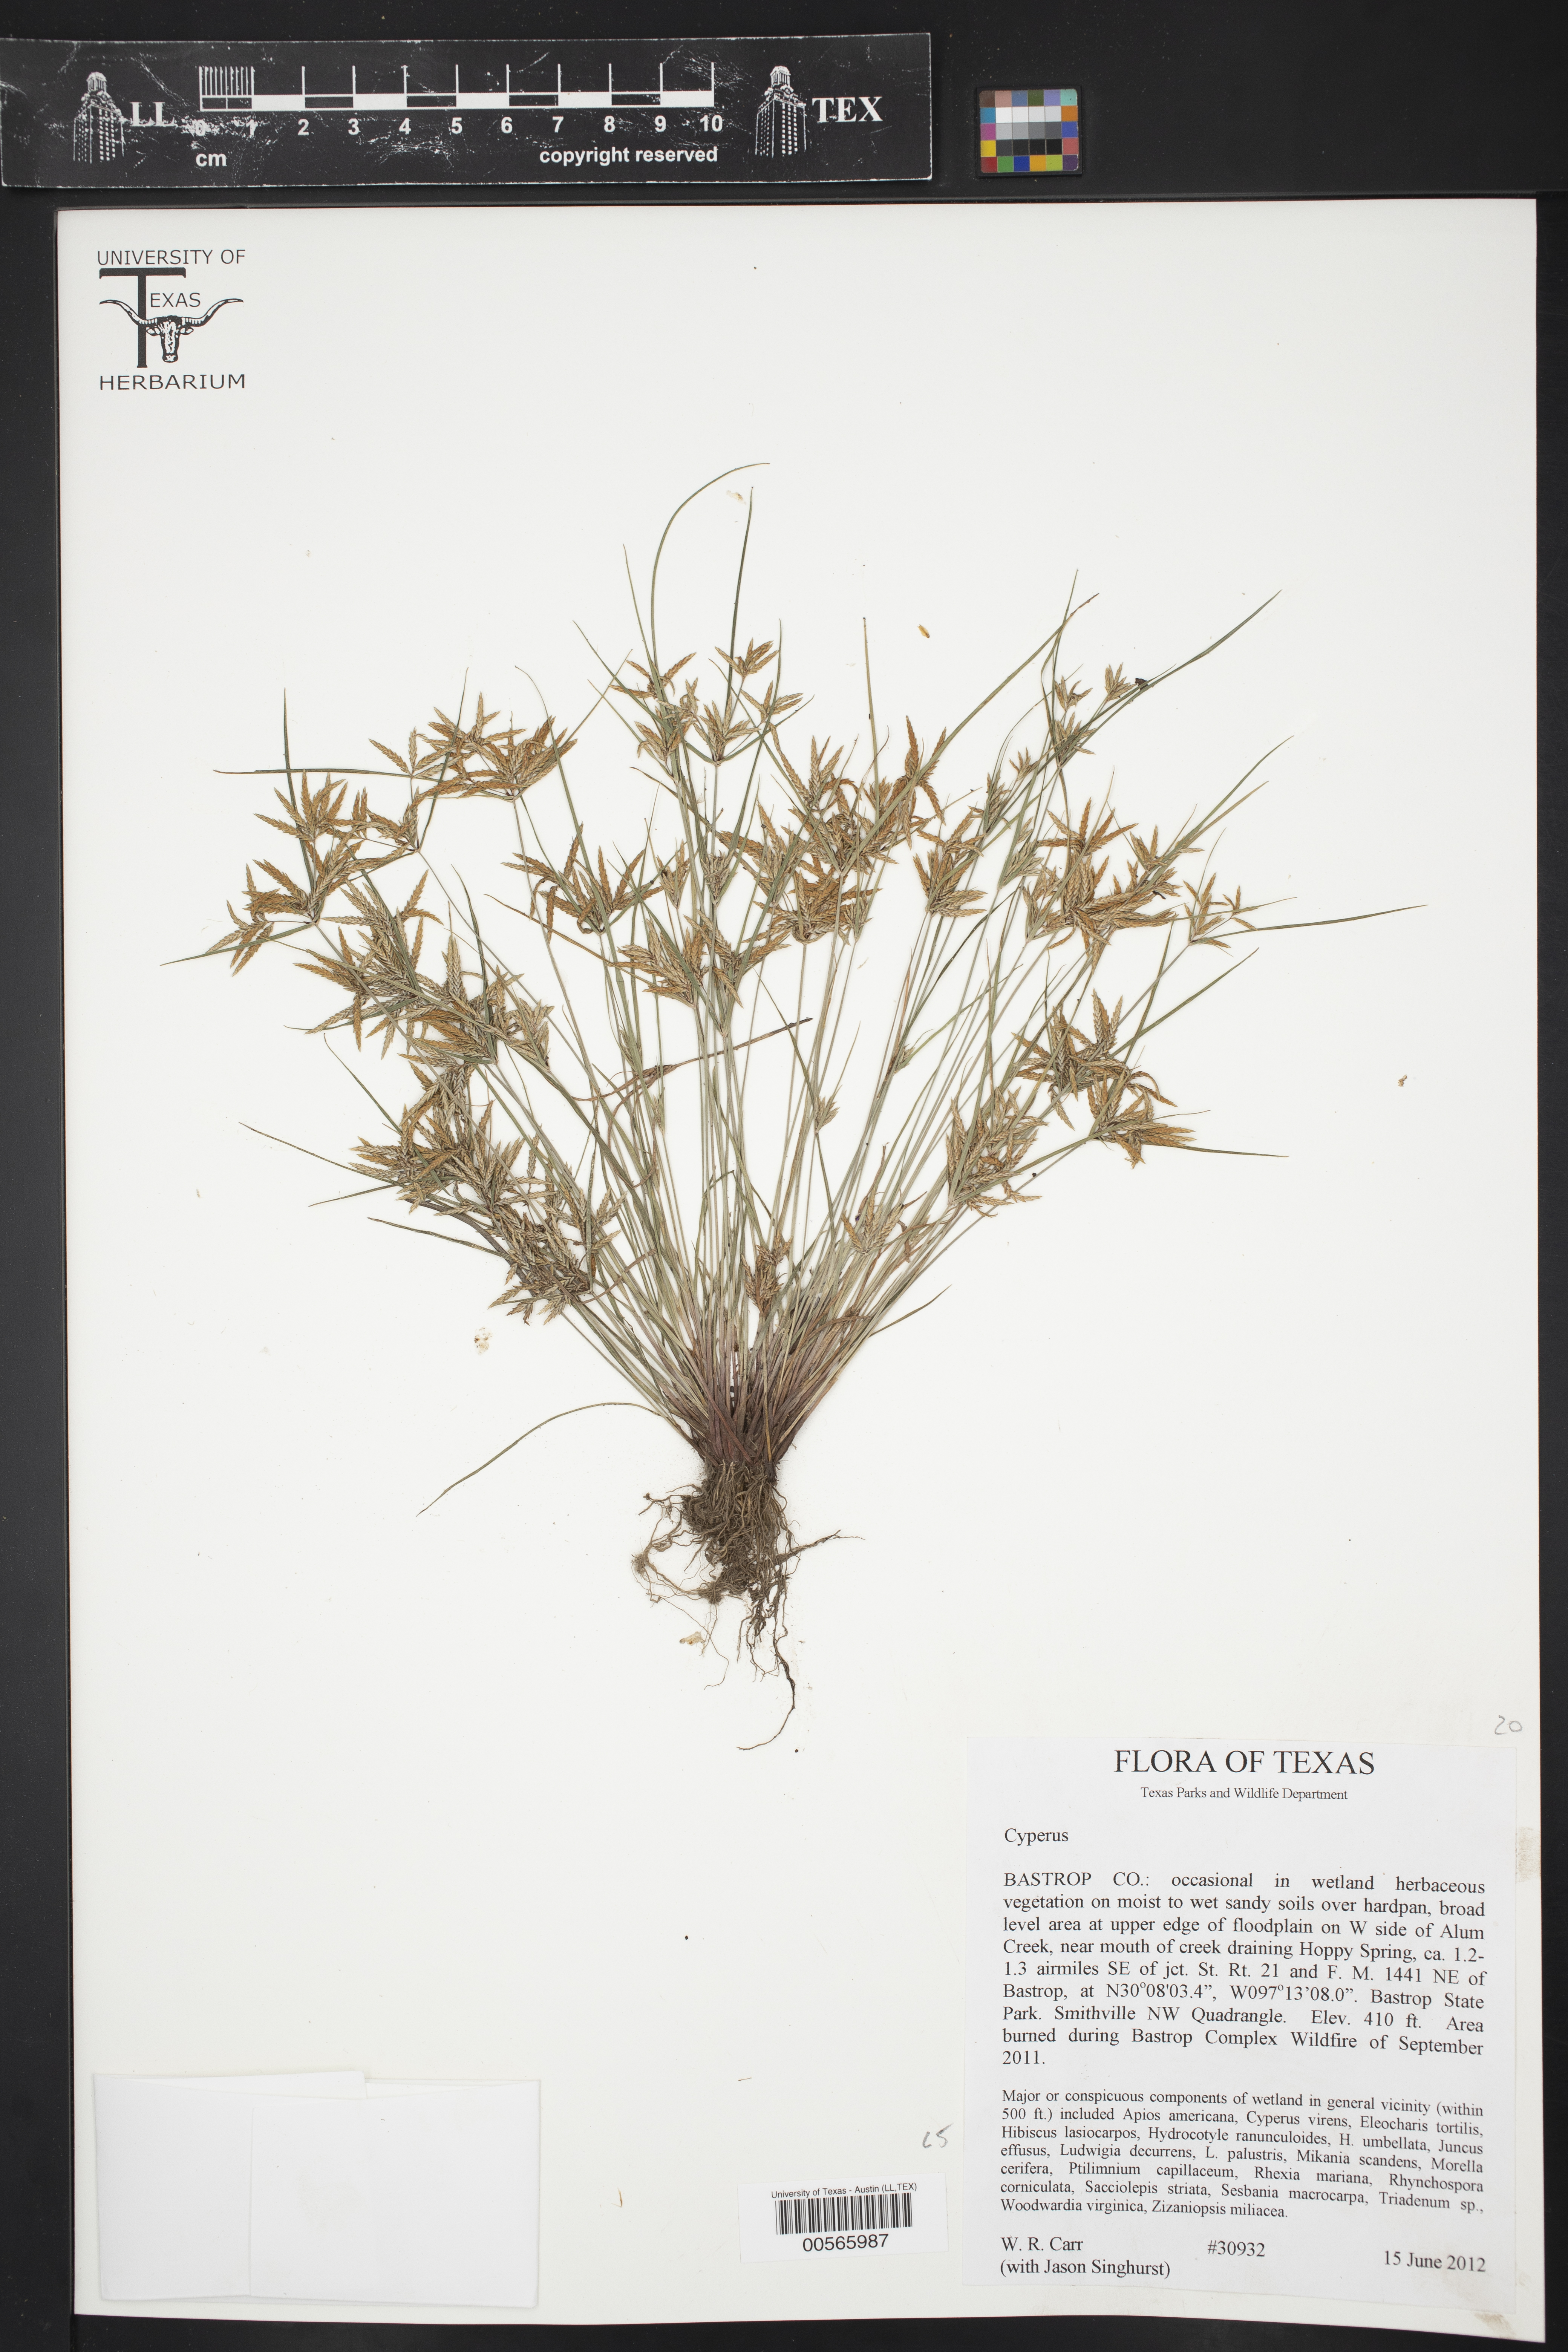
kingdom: Plantae
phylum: Tracheophyta
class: Liliopsida
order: Poales
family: Cyperaceae
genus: Cyperus
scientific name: Cyperus
